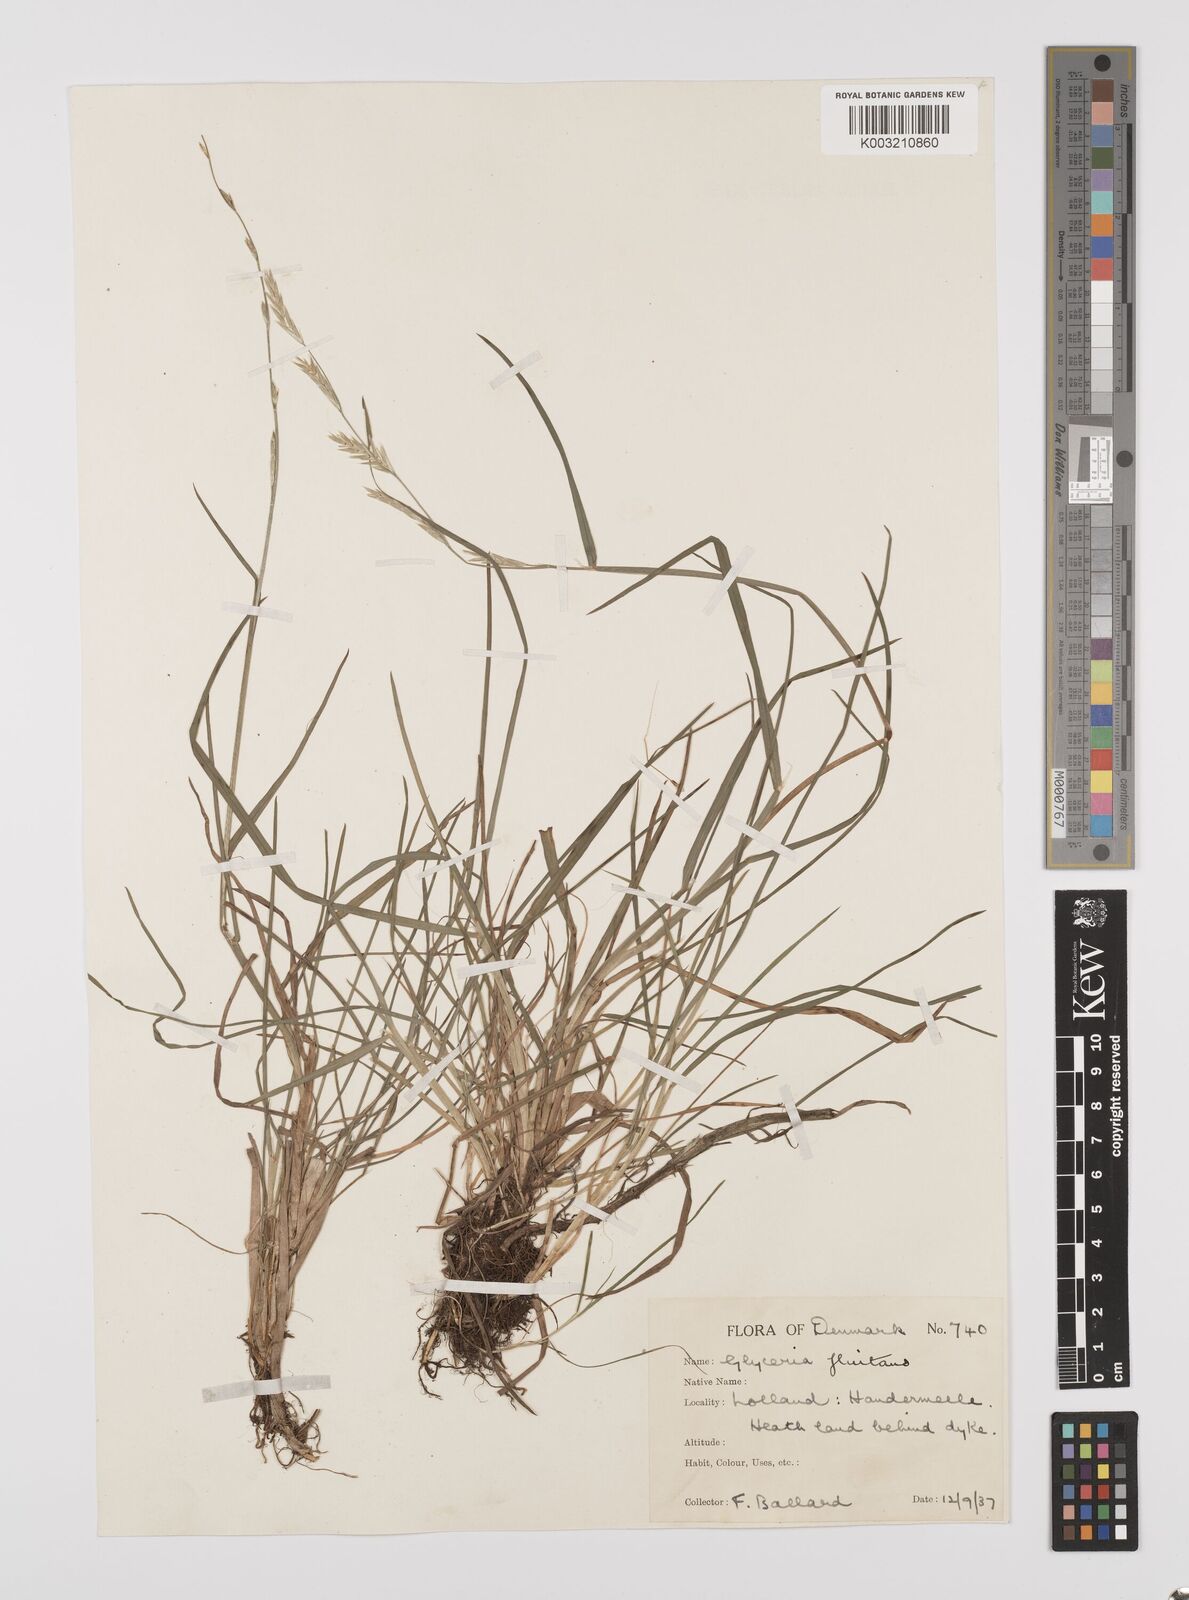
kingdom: Plantae
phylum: Tracheophyta
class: Liliopsida
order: Poales
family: Poaceae
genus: Glyceria
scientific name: Glyceria fluitans
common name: Floating sweet-grass
